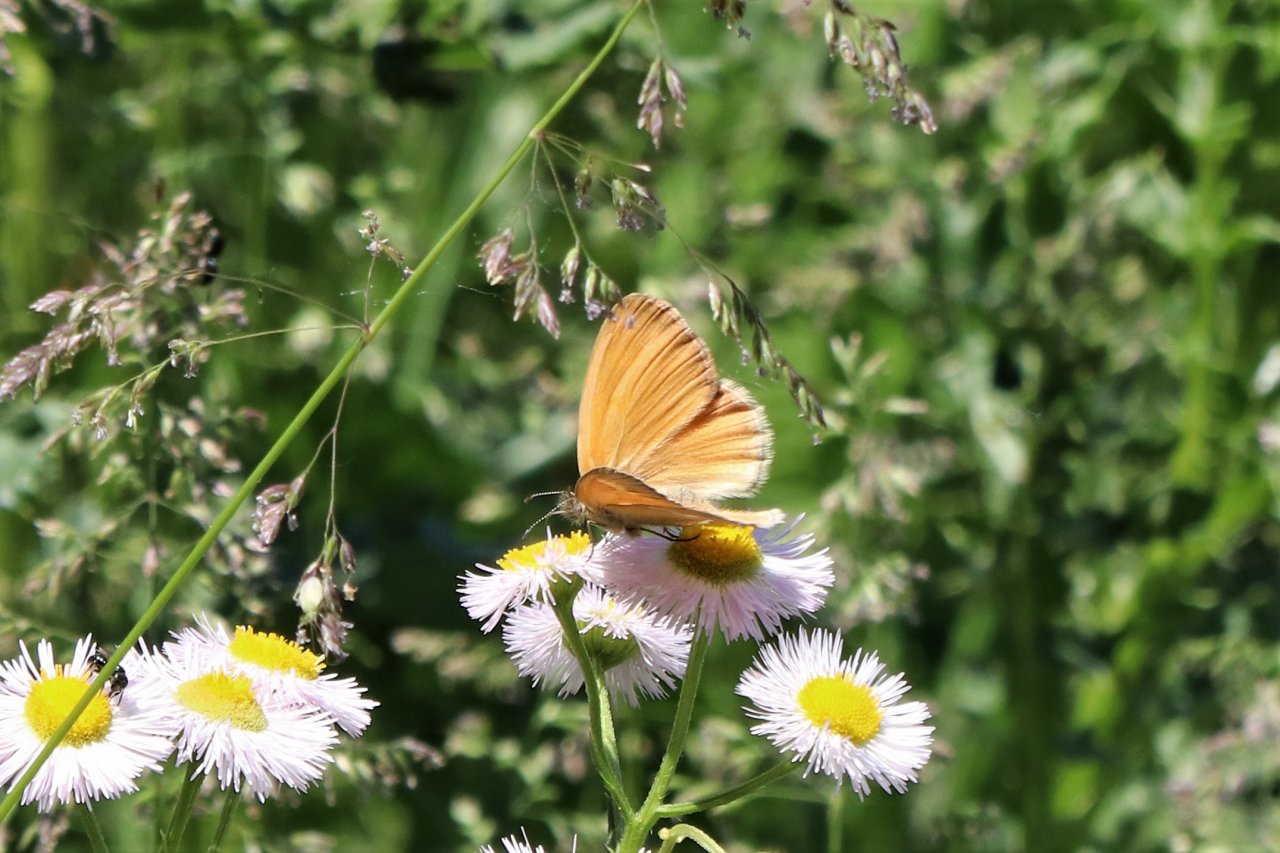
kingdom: Animalia
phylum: Arthropoda
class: Insecta
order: Lepidoptera
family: Nymphalidae
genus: Coenonympha
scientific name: Coenonympha tullia
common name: Large Heath
